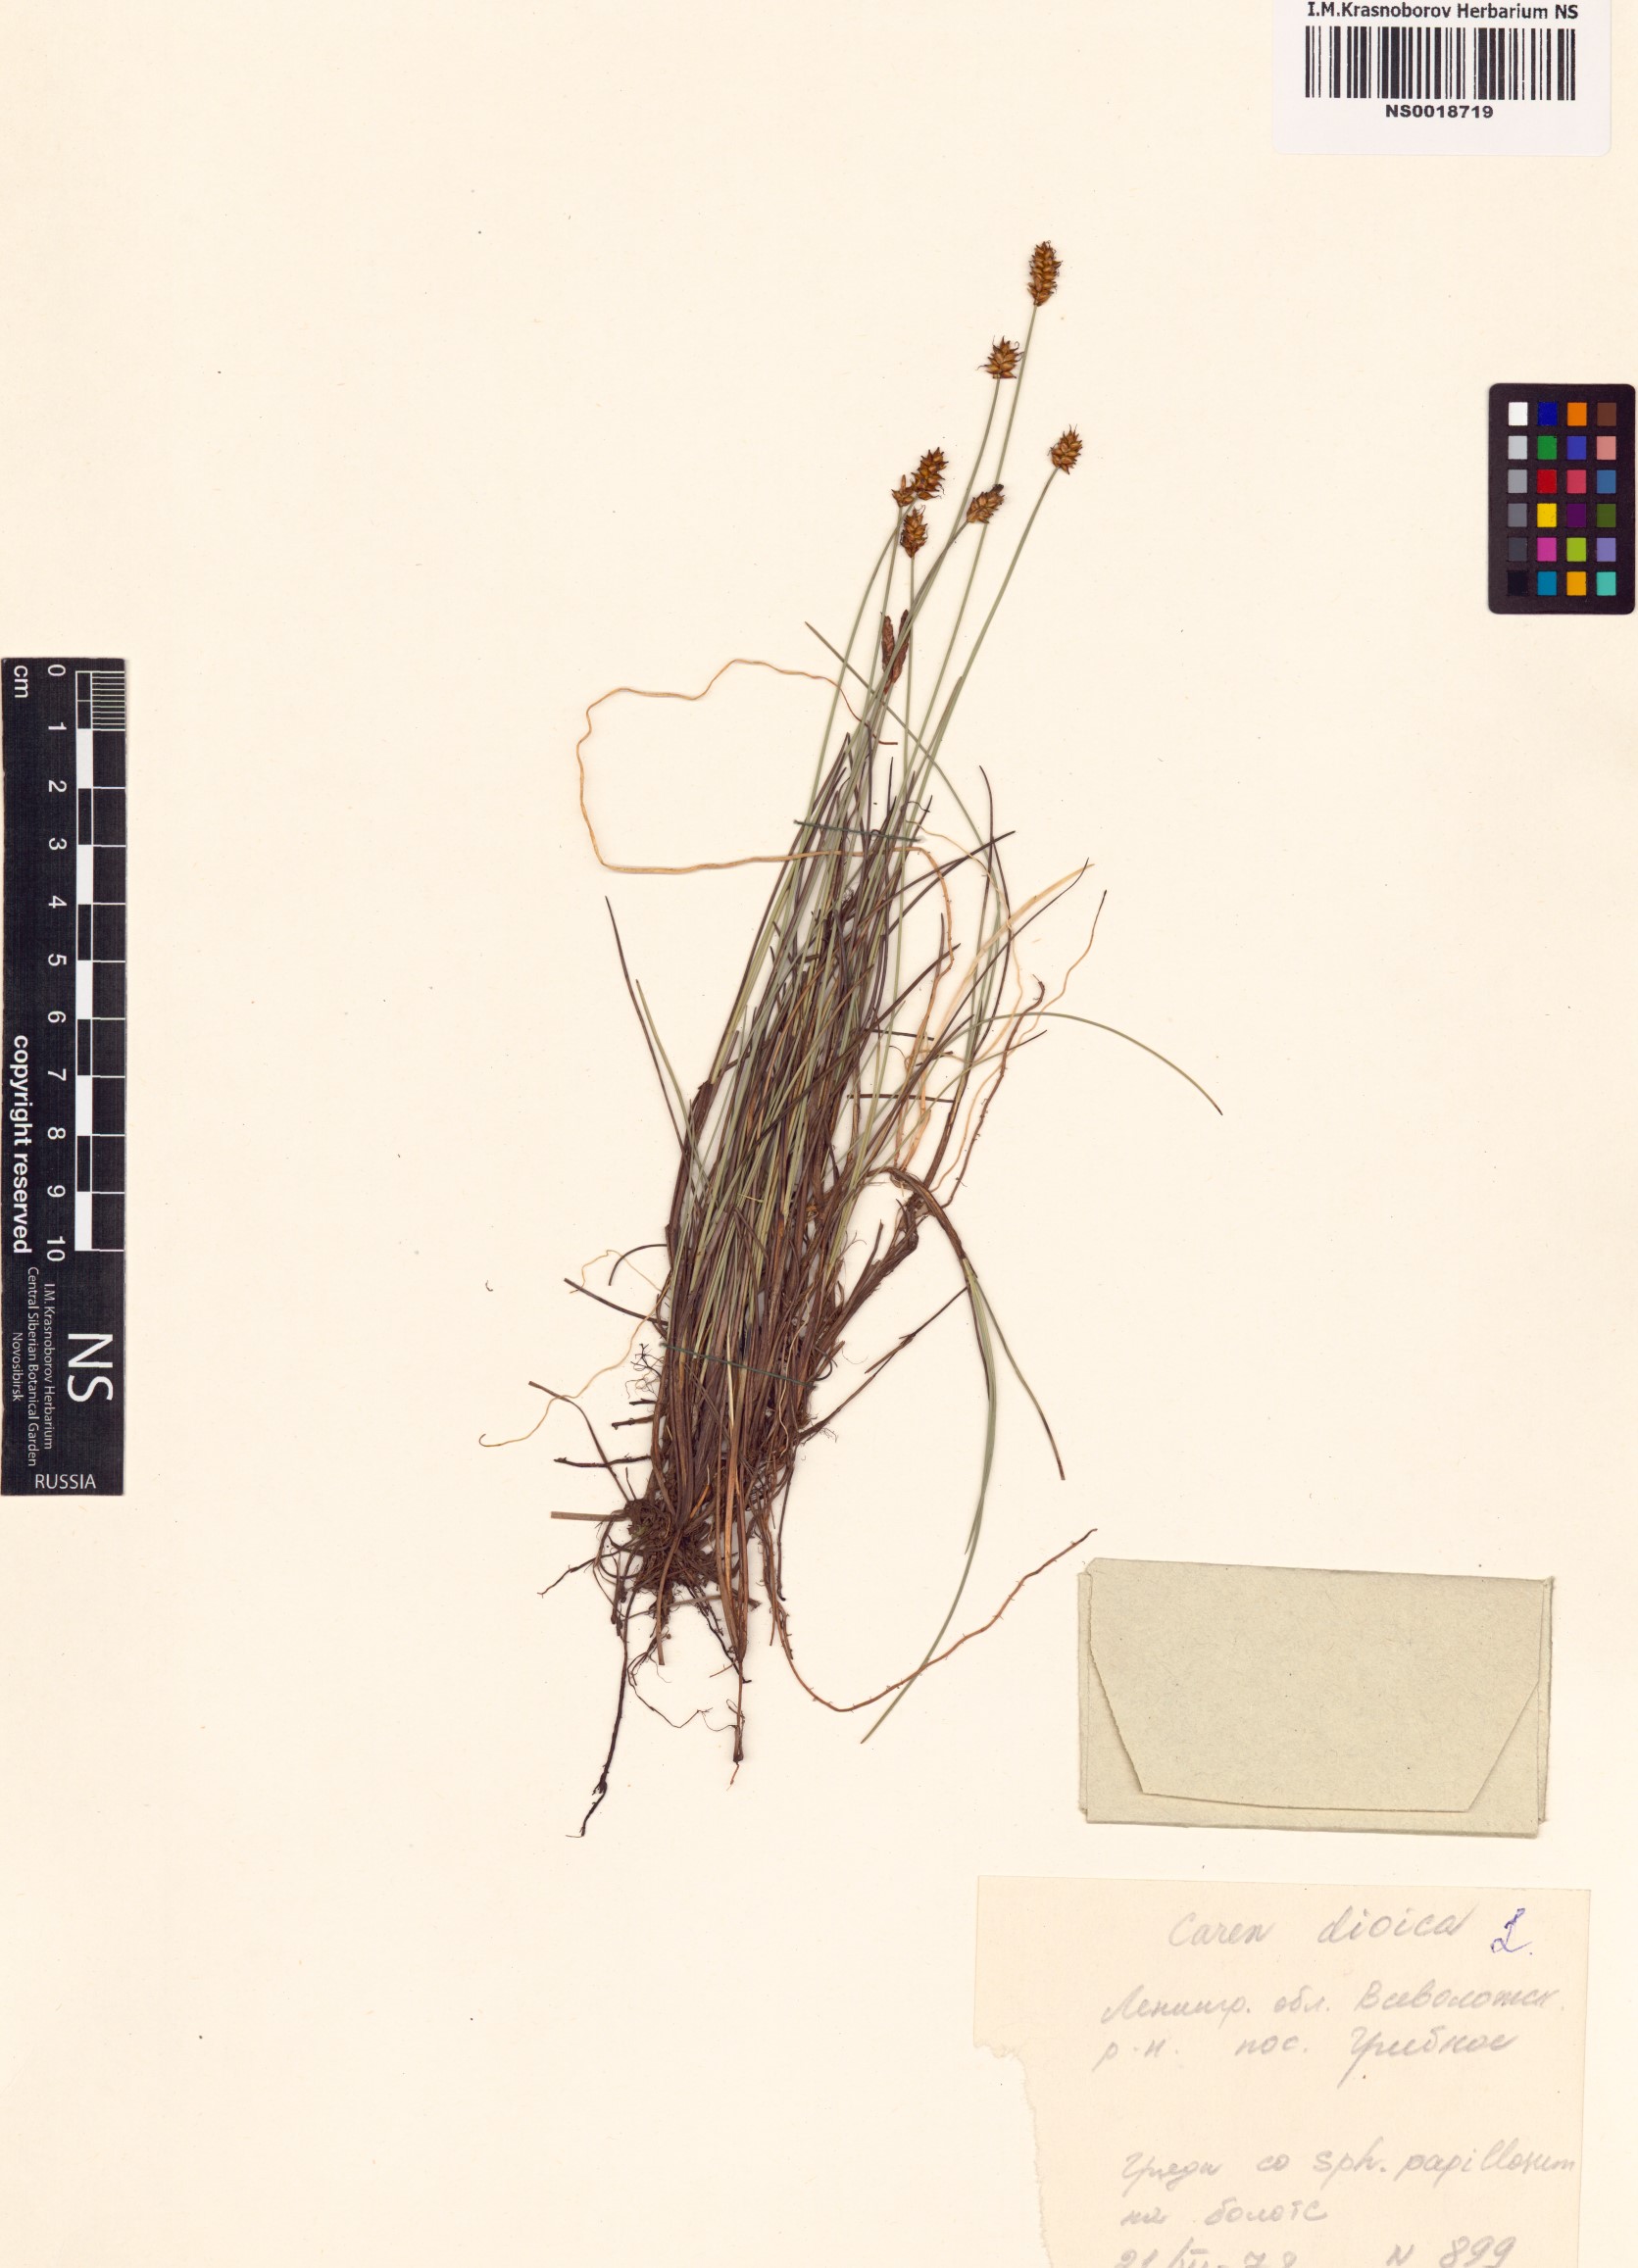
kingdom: Plantae
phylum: Tracheophyta
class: Liliopsida
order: Poales
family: Cyperaceae
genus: Carex
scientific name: Carex dioica
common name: Dioecious sedge
